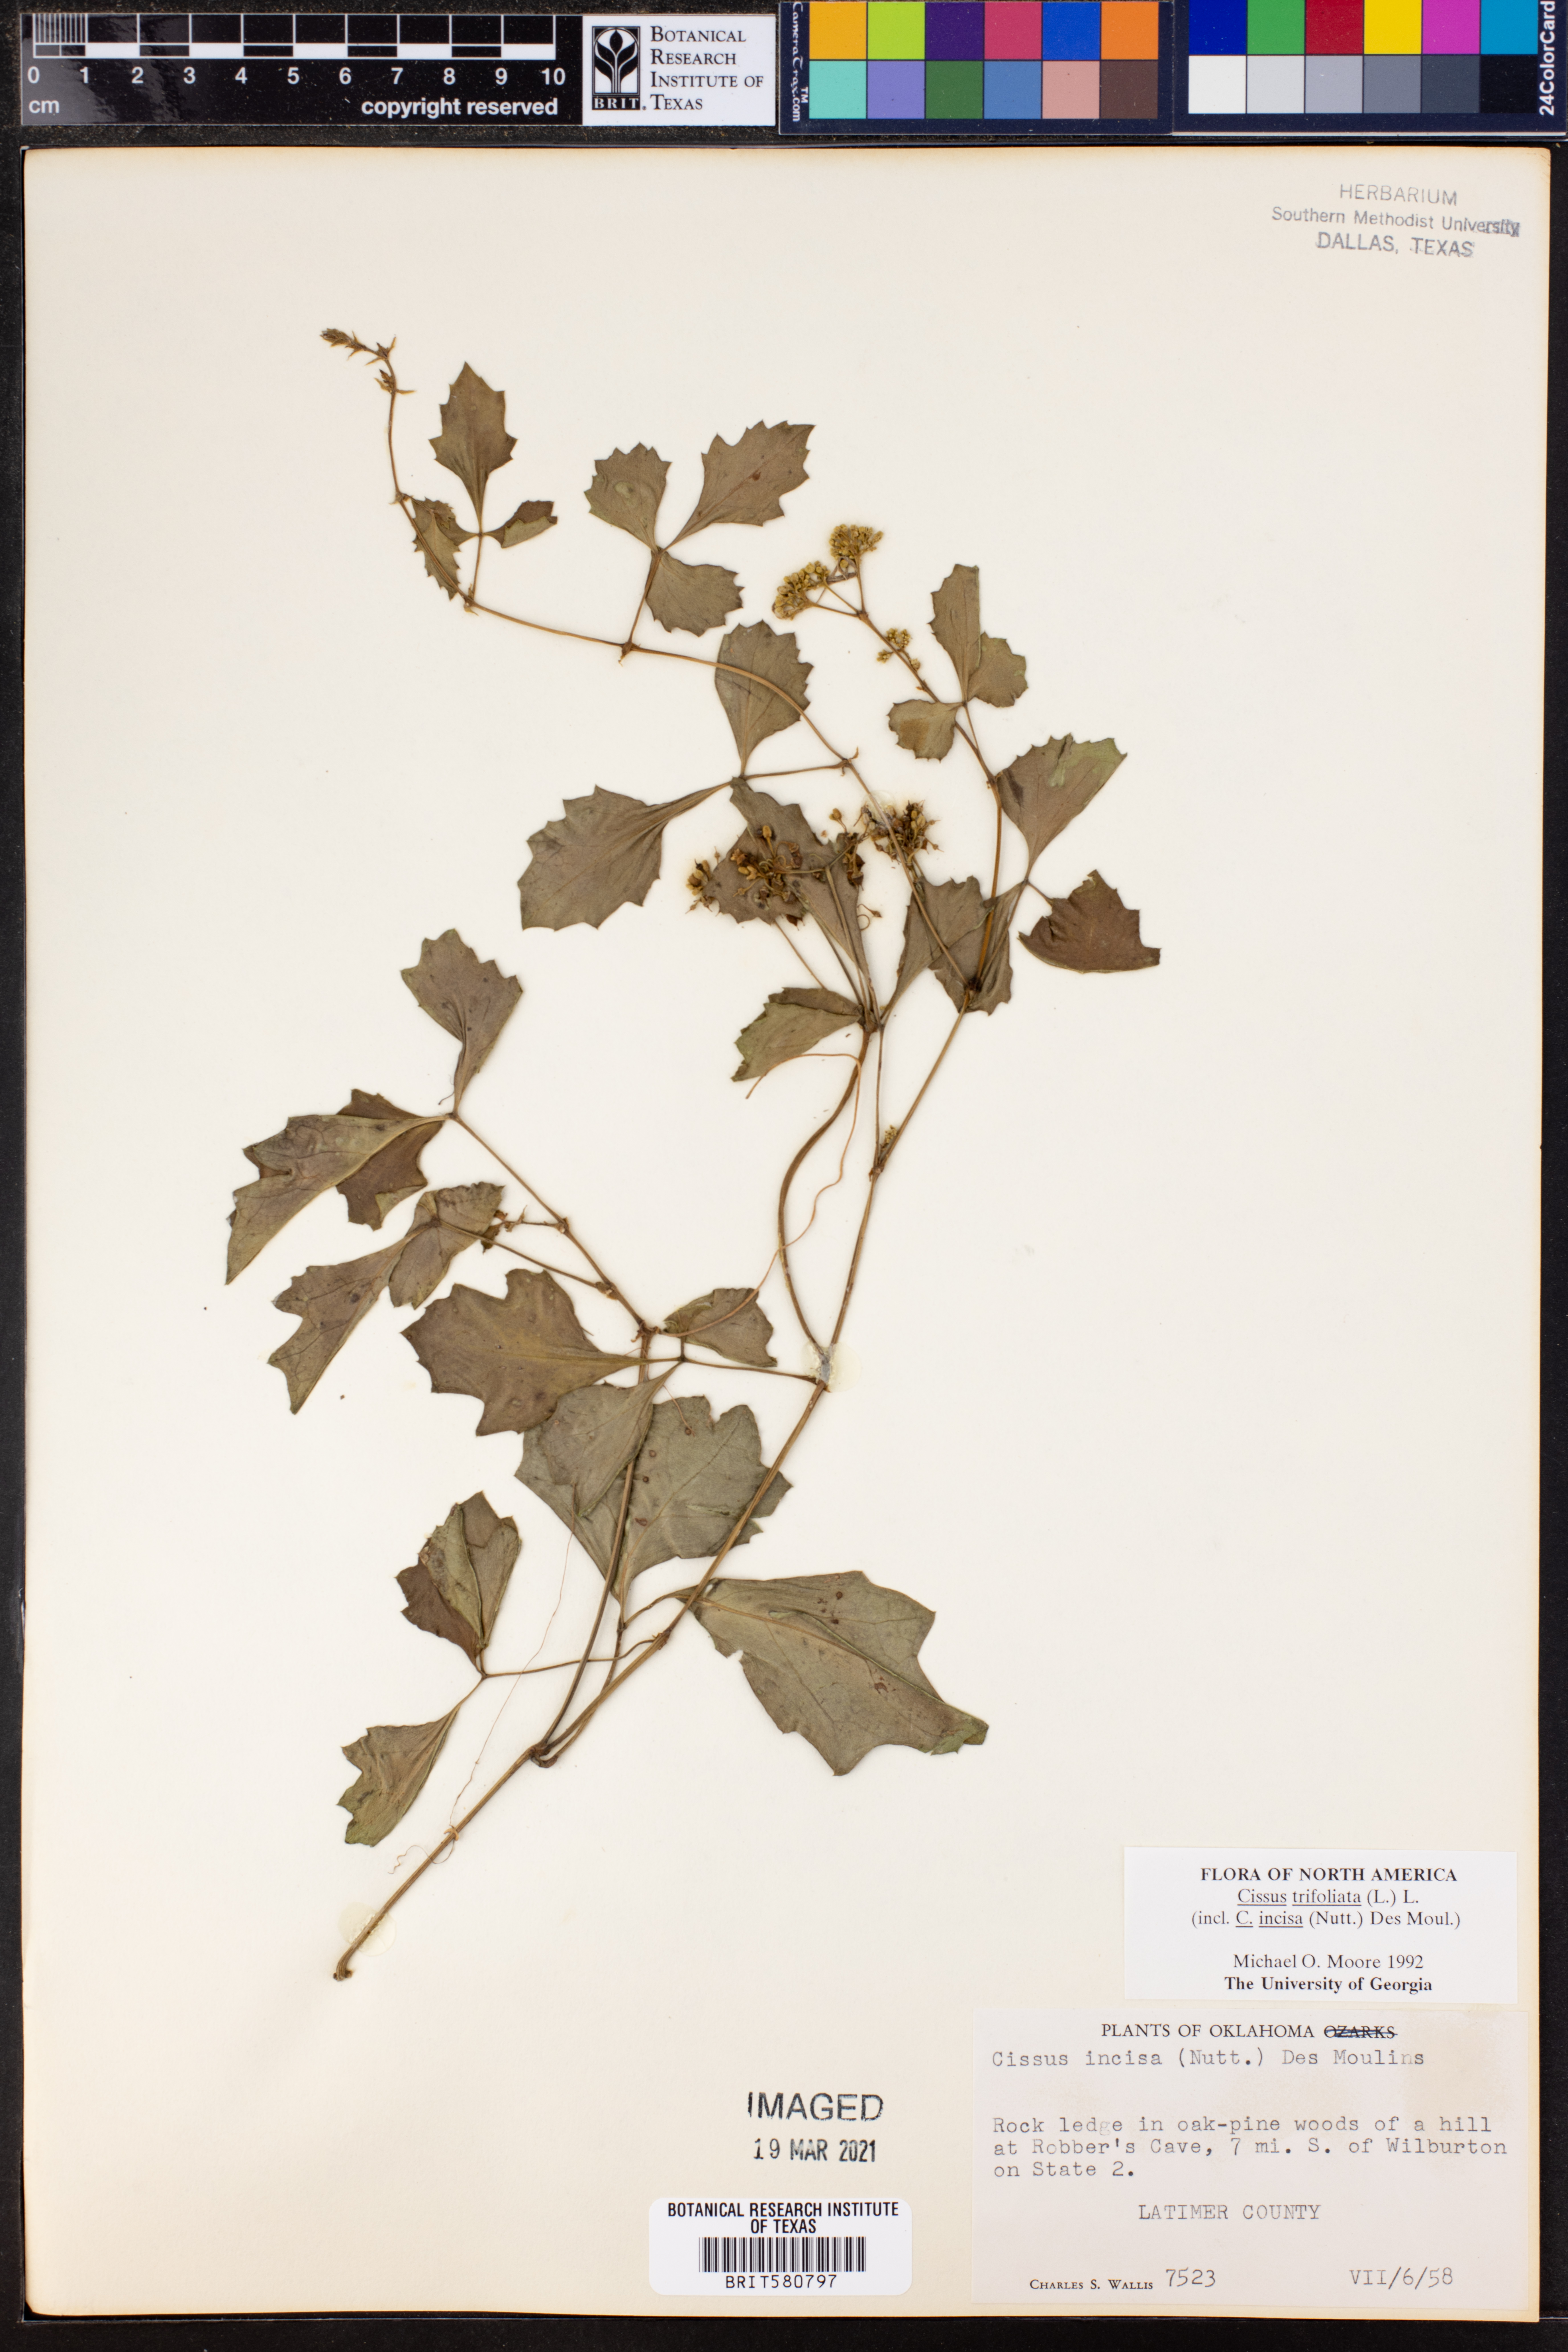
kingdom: Plantae
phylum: Tracheophyta
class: Magnoliopsida
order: Vitales
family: Vitaceae
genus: Cissus
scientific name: Cissus trifoliata
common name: Vine-sorrel
